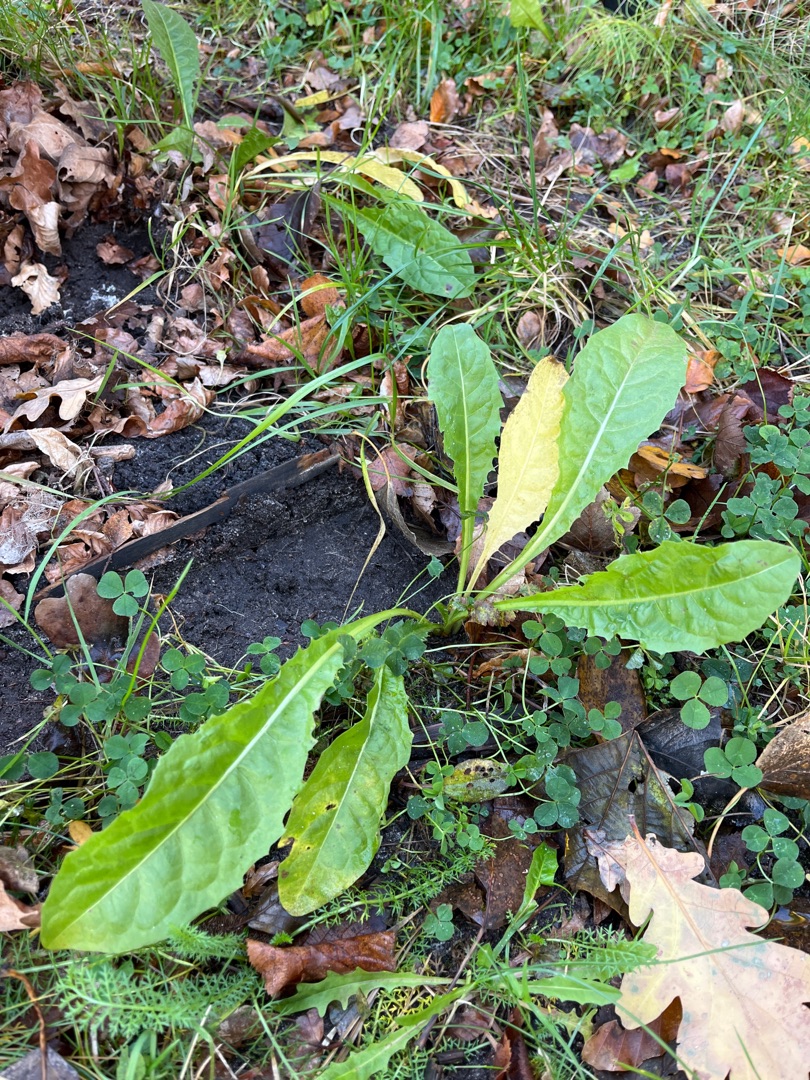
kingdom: Plantae
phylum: Tracheophyta
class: Magnoliopsida
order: Asterales
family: Asteraceae
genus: Taraxacum
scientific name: Taraxacum
